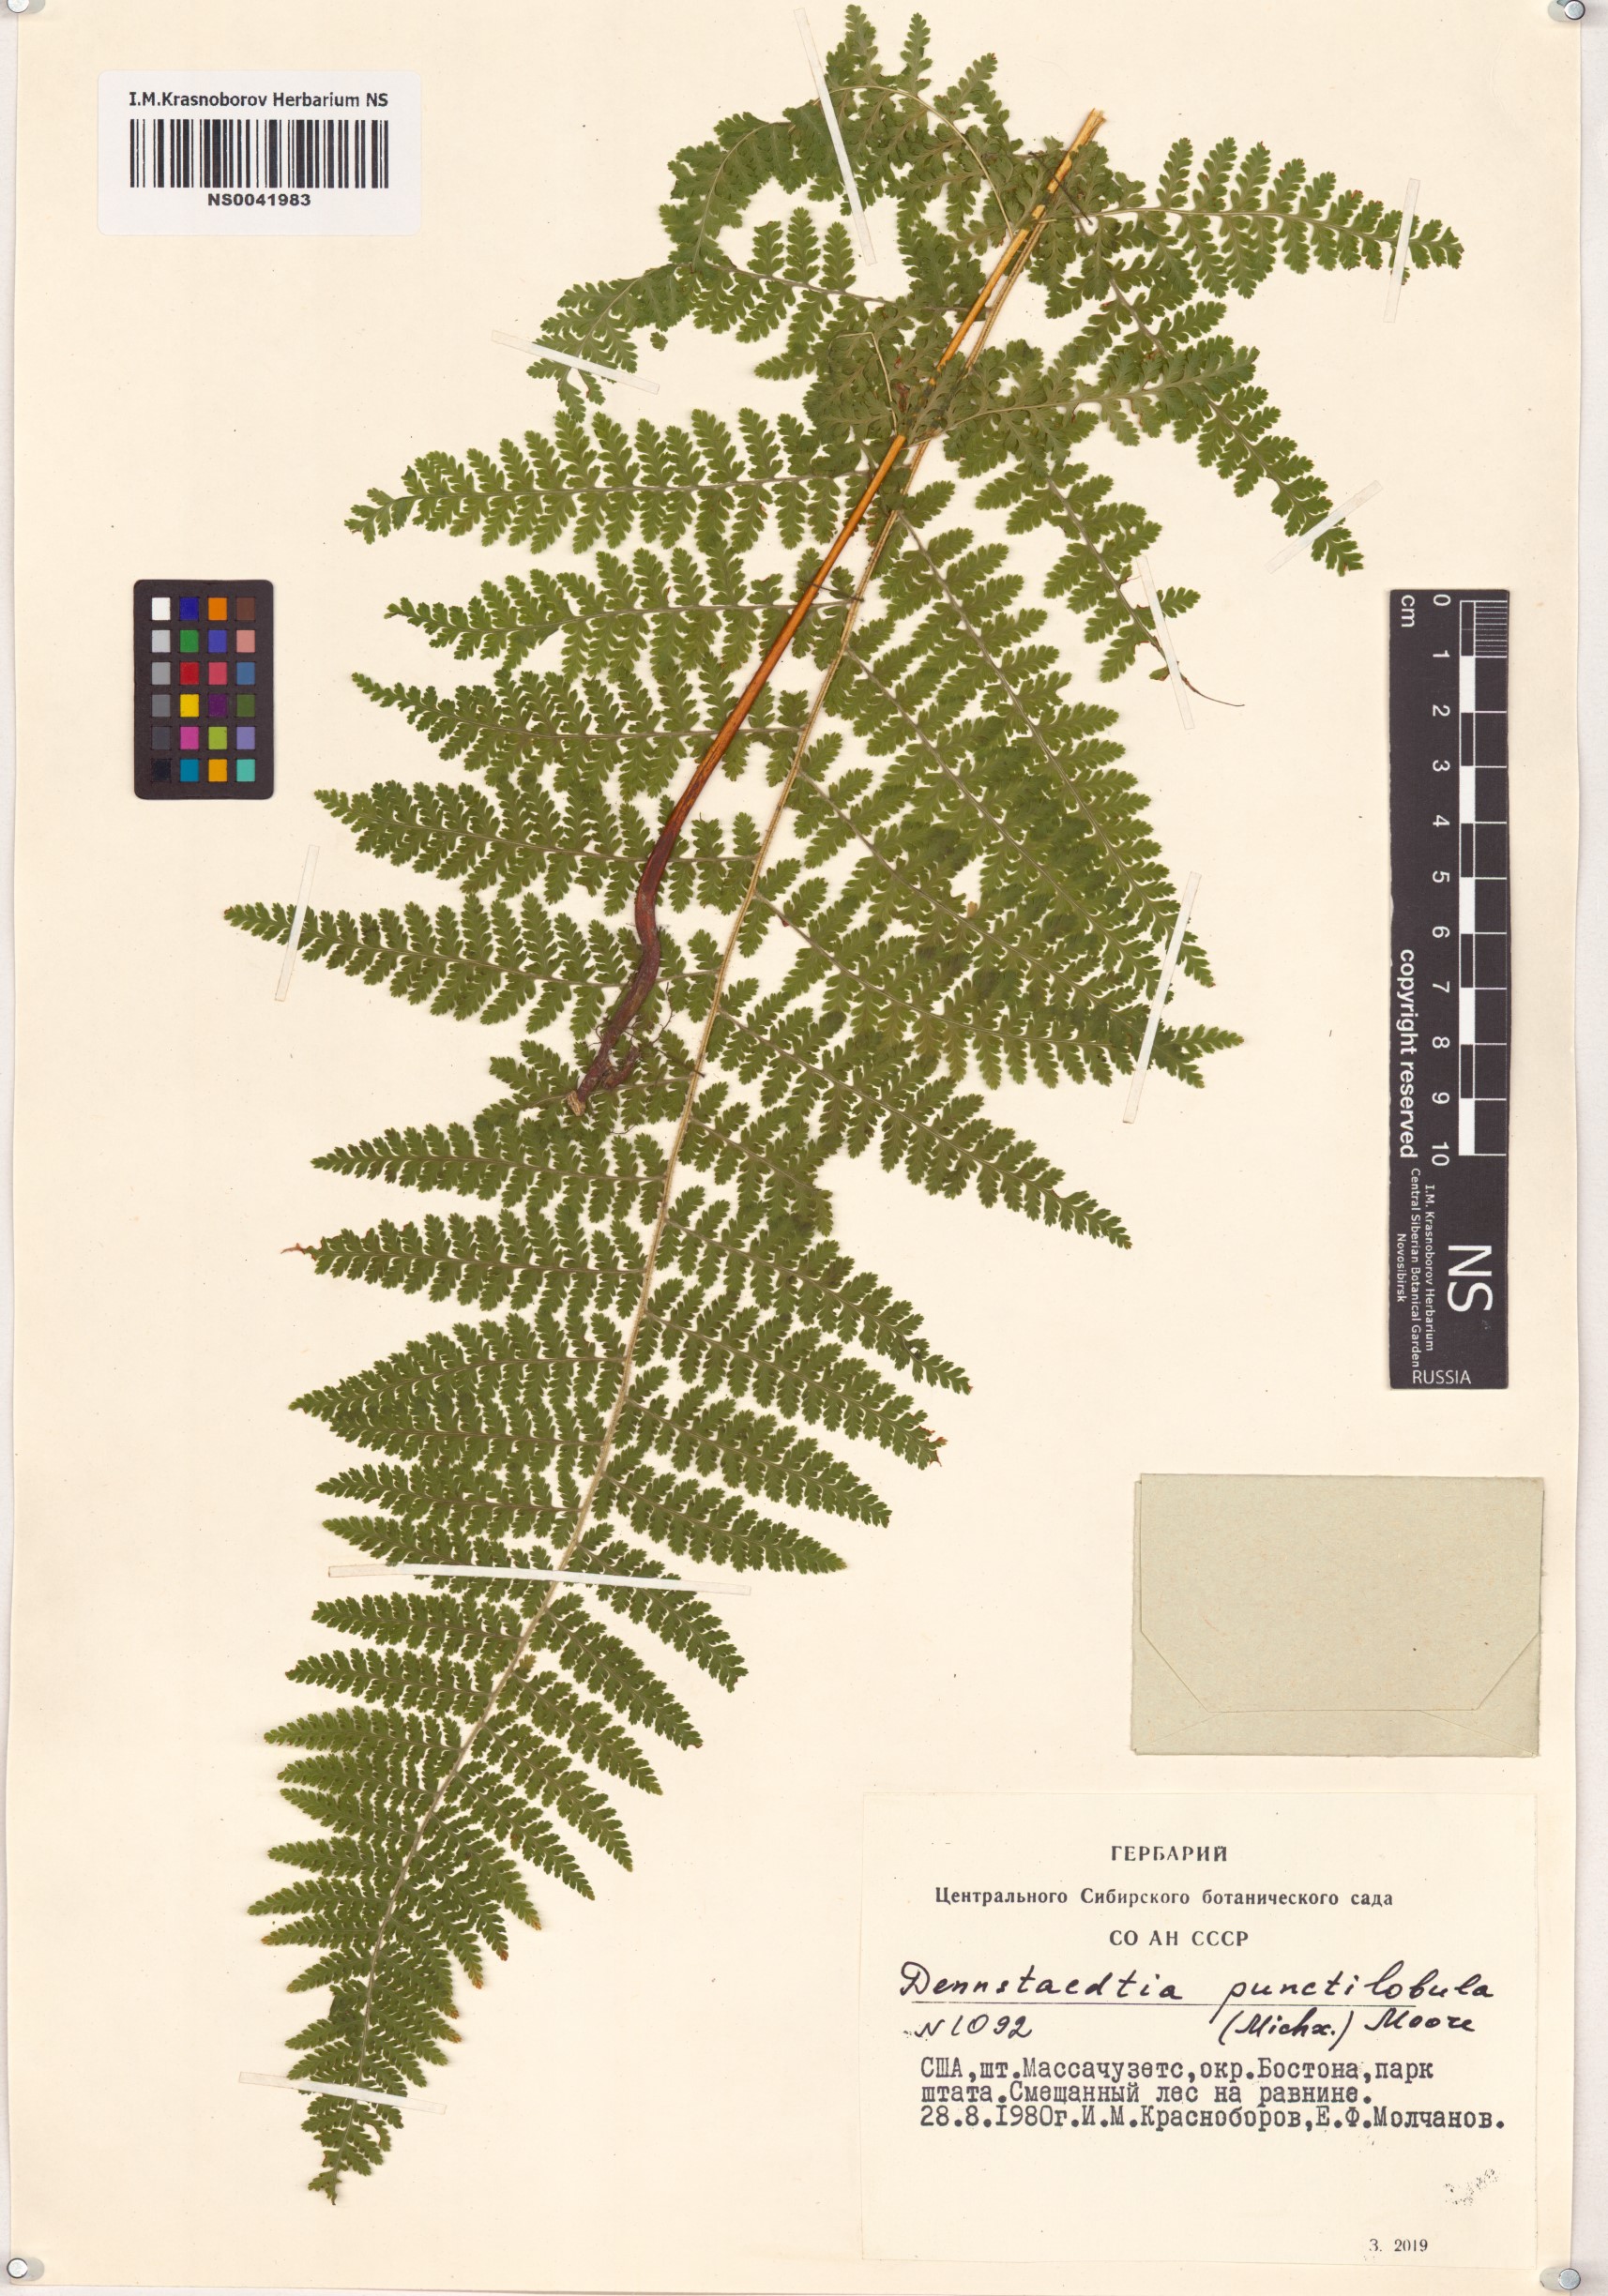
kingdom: Plantae
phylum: Tracheophyta
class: Polypodiopsida
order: Polypodiales
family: Dennstaedtiaceae
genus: Sitobolium
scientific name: Sitobolium punctilobum
